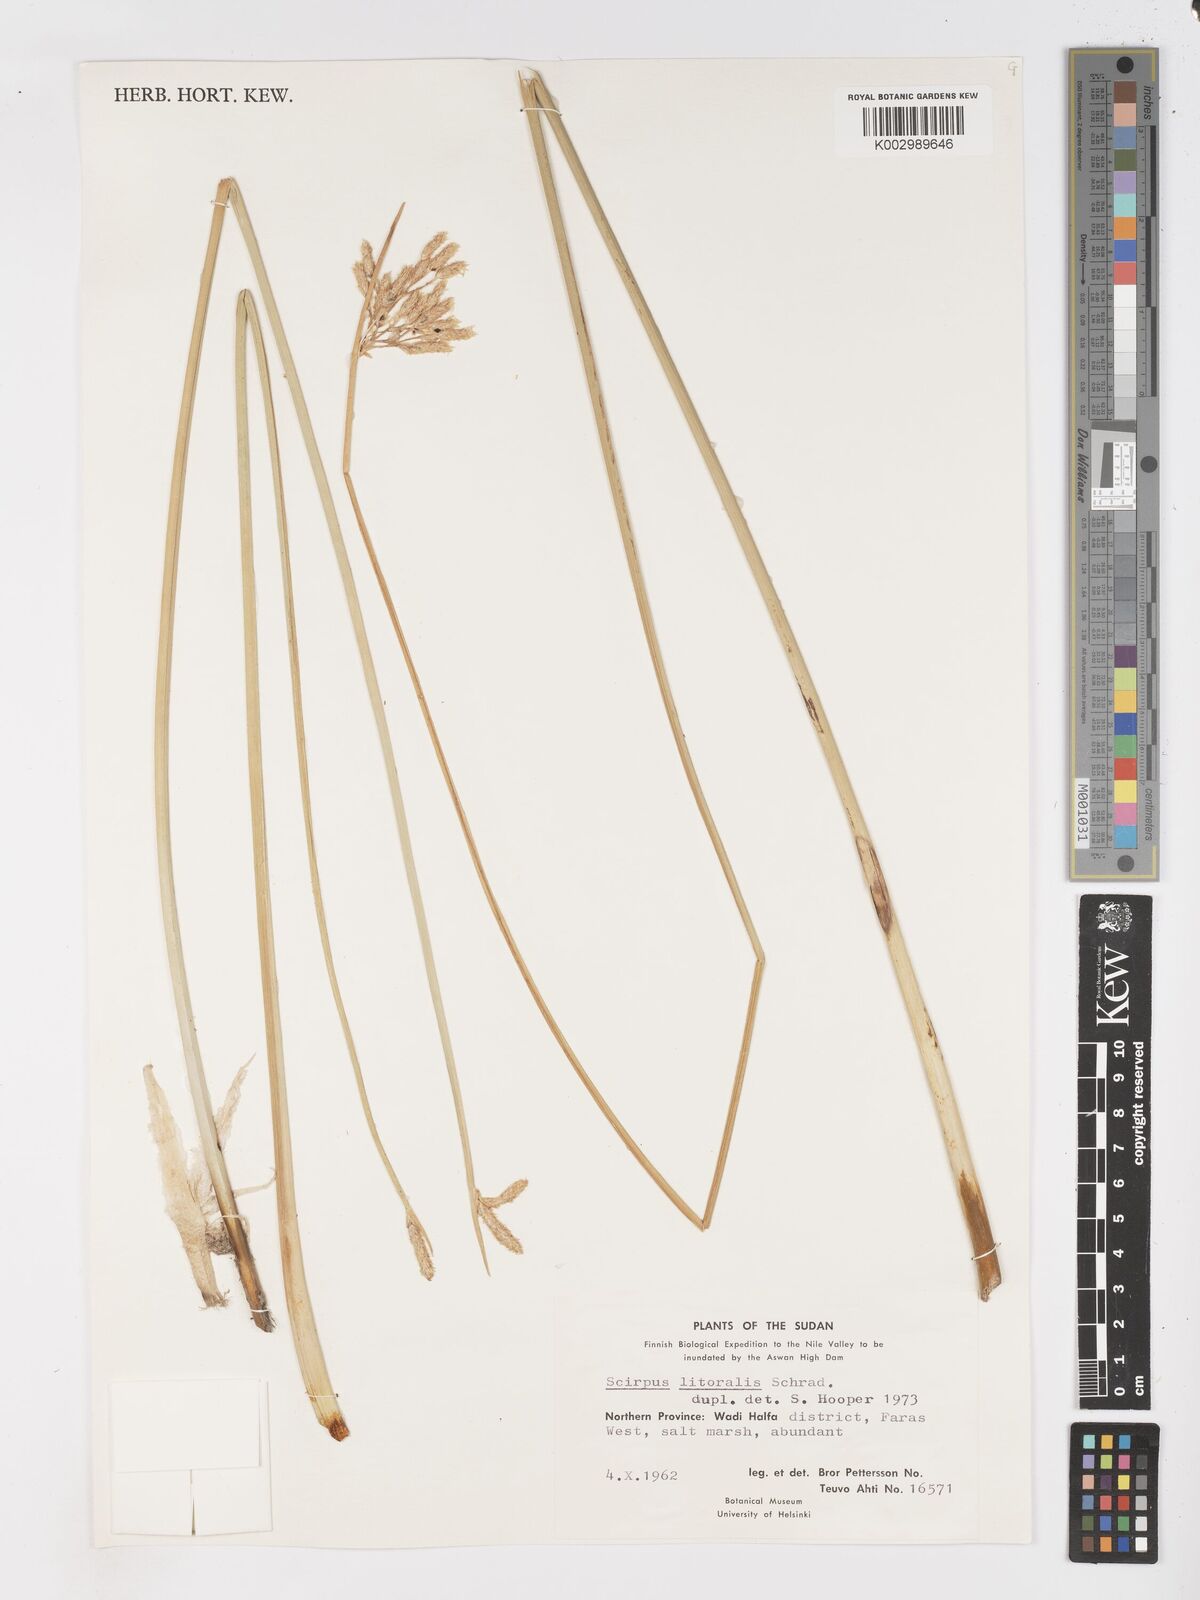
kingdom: Plantae
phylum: Tracheophyta
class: Liliopsida
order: Poales
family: Cyperaceae
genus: Schoenoplectus
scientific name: Schoenoplectus litoralis
